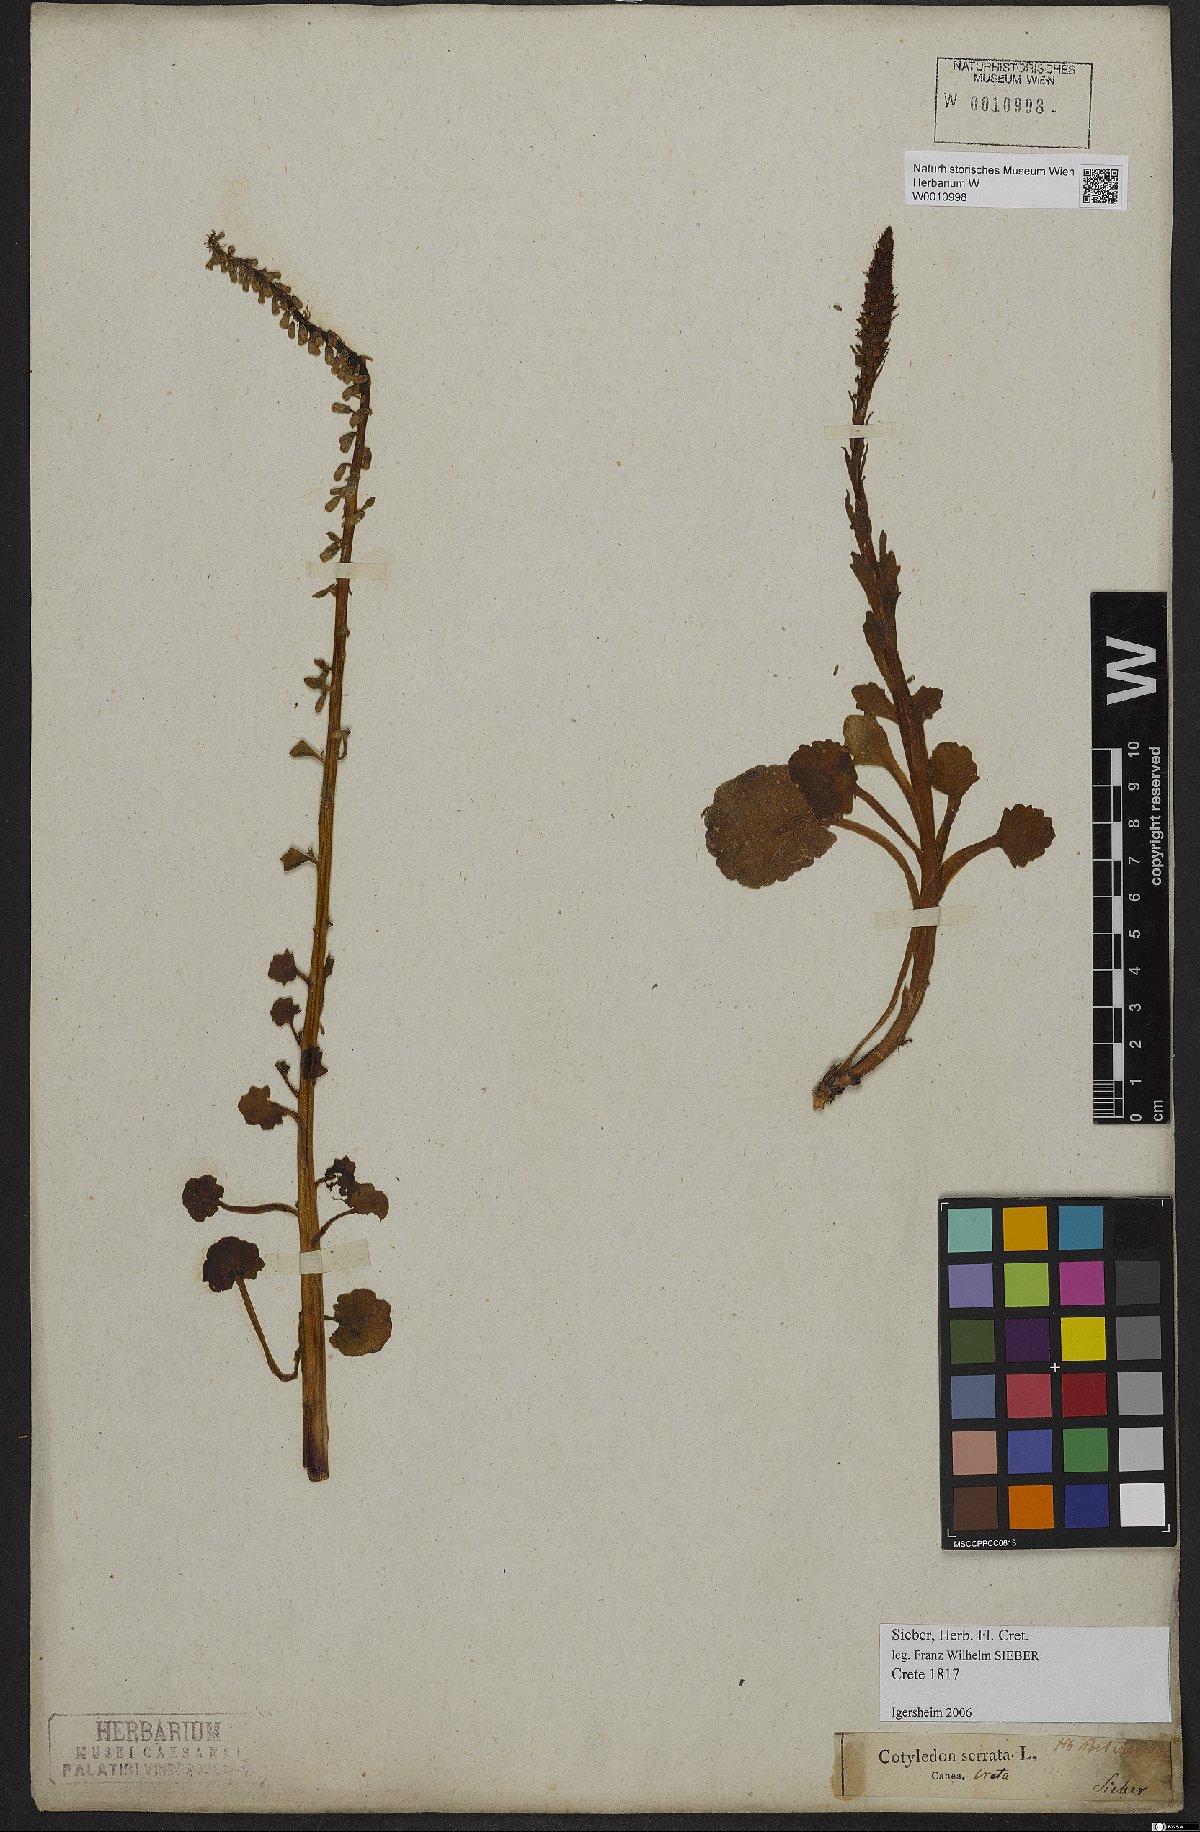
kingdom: Plantae
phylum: Tracheophyta
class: Magnoliopsida
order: Saxifragales
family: Crassulaceae
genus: Umbilicus
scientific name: Umbilicus horizontalis
